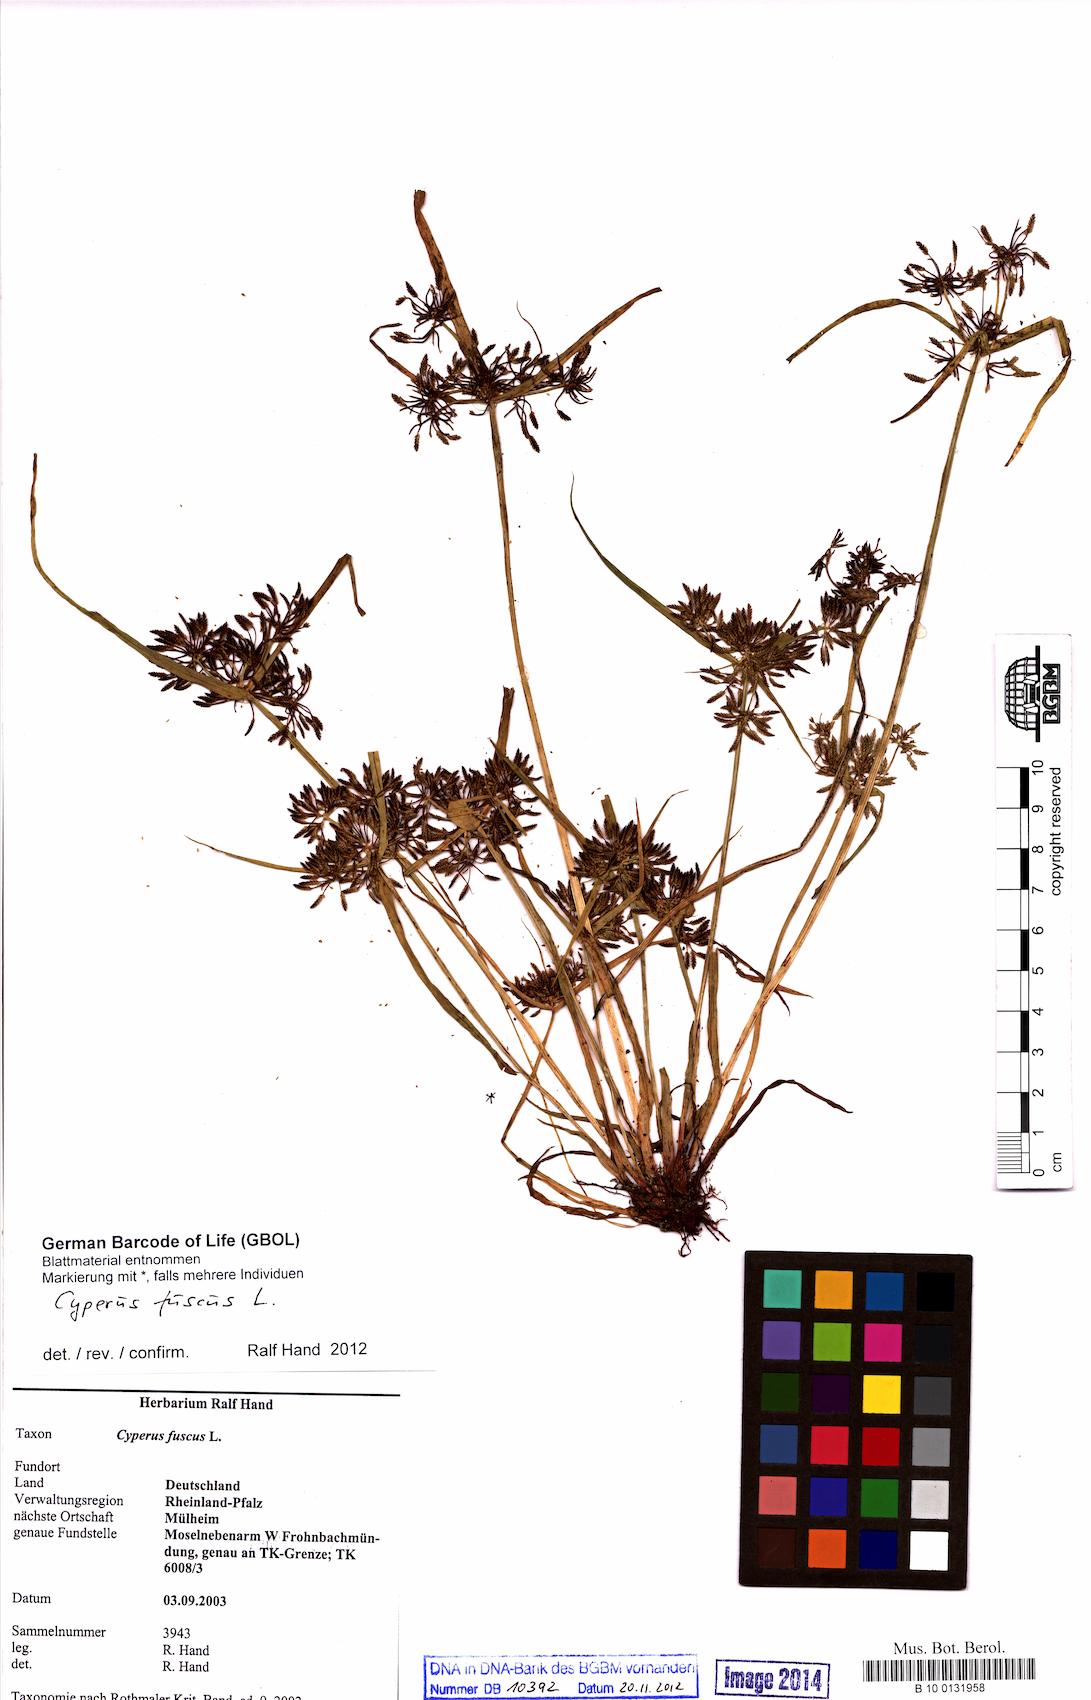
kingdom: Plantae
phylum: Tracheophyta
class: Liliopsida
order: Poales
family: Cyperaceae
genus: Cyperus
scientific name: Cyperus fuscus
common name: Brown galingale
